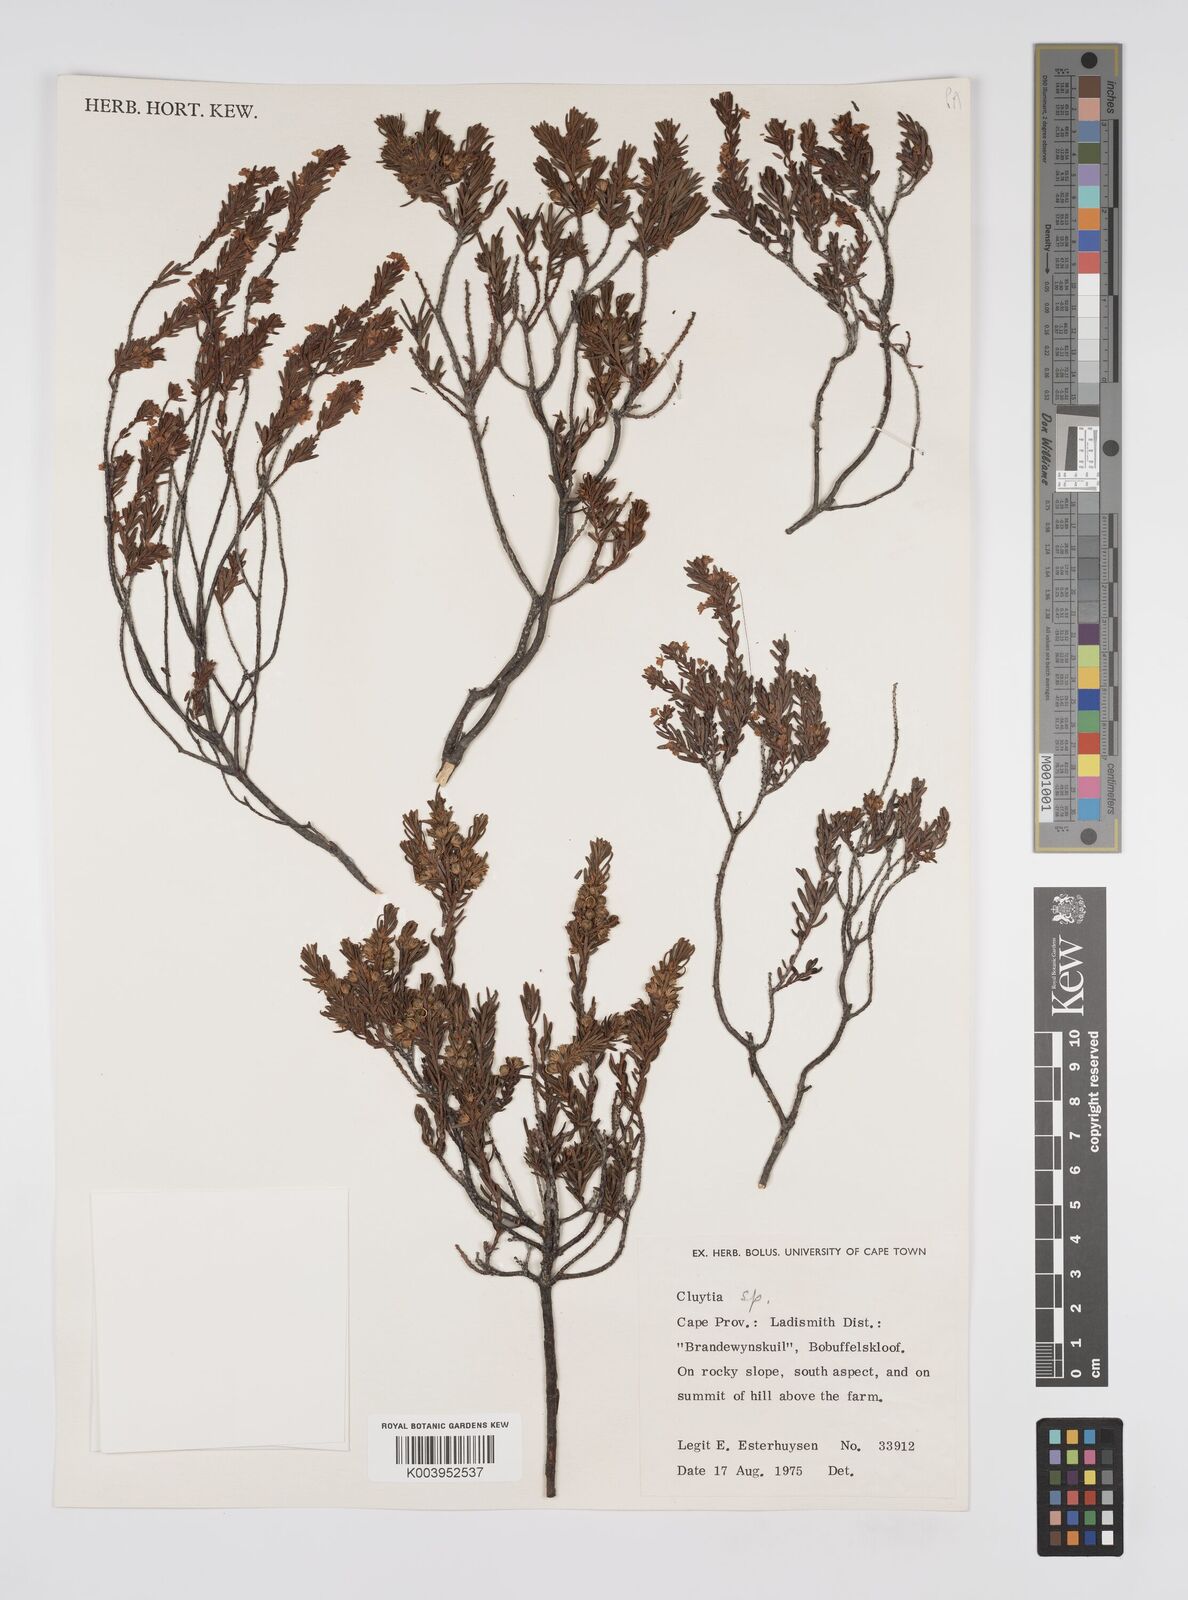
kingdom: Plantae
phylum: Tracheophyta
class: Magnoliopsida
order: Malpighiales
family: Peraceae
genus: Clutia
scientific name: Clutia
